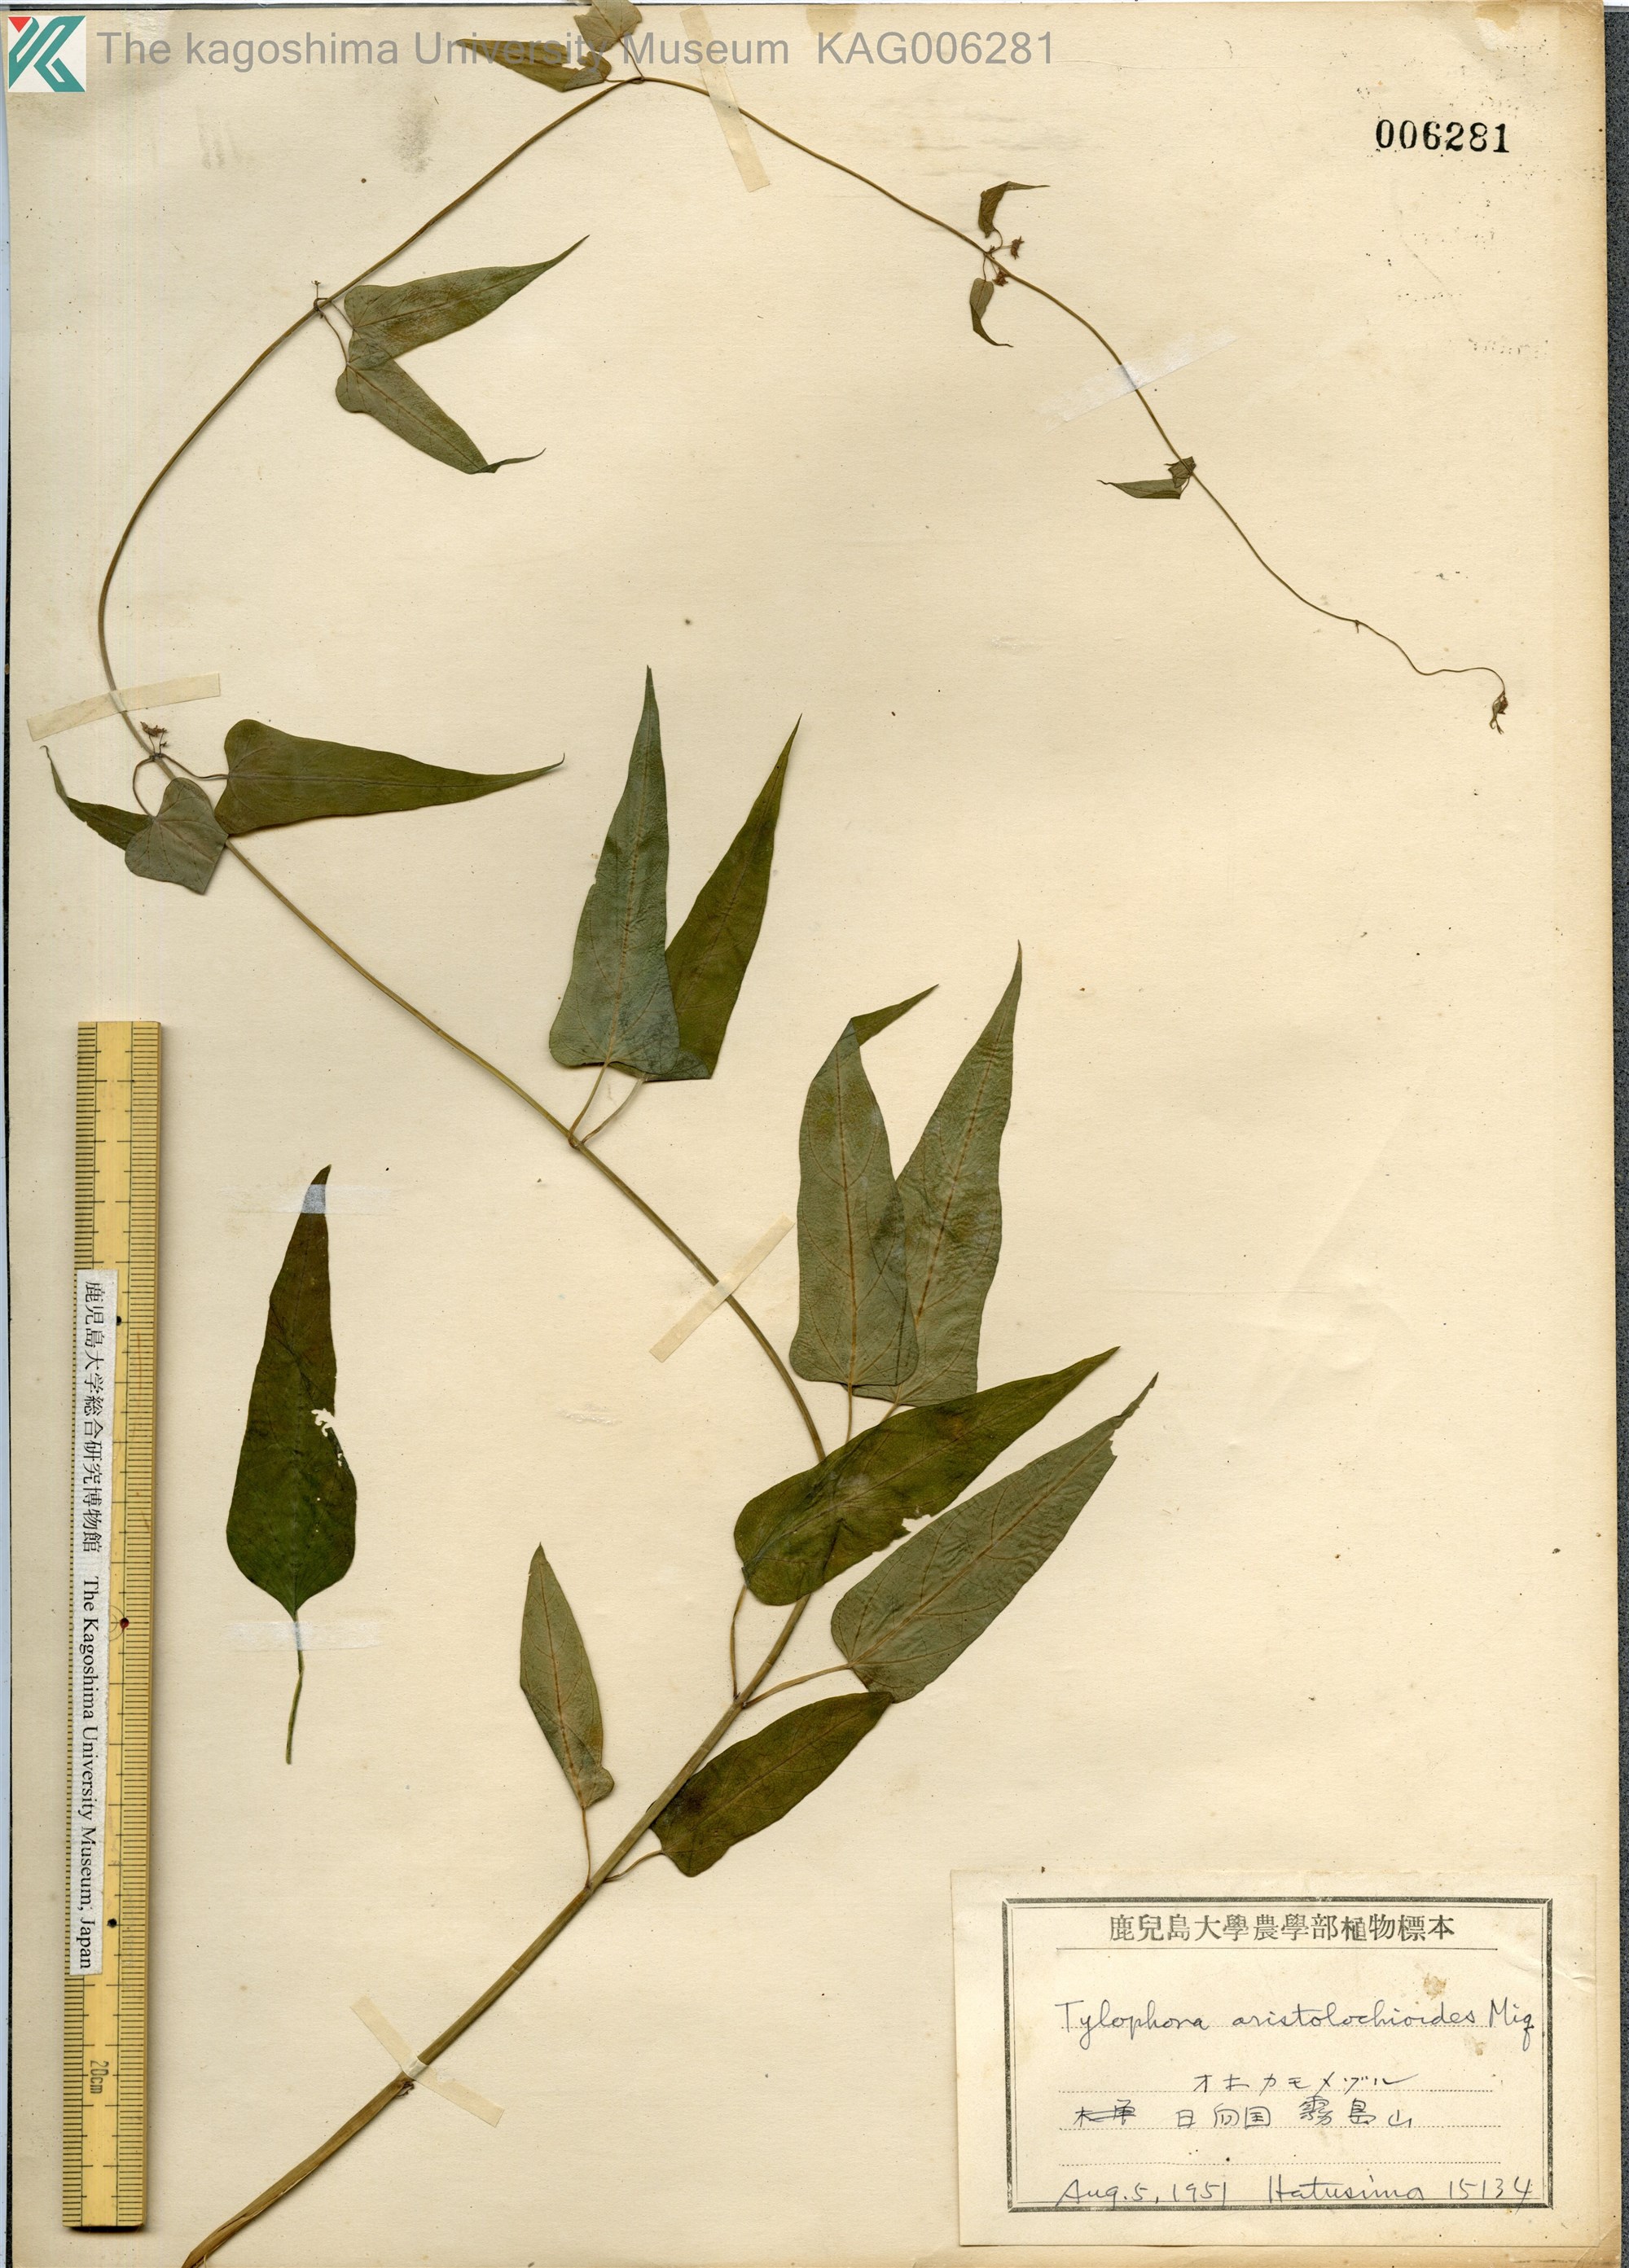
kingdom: Plantae
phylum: Tracheophyta
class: Magnoliopsida
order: Gentianales
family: Apocynaceae
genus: Vincetoxicum
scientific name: Vincetoxicum aristolochioides
